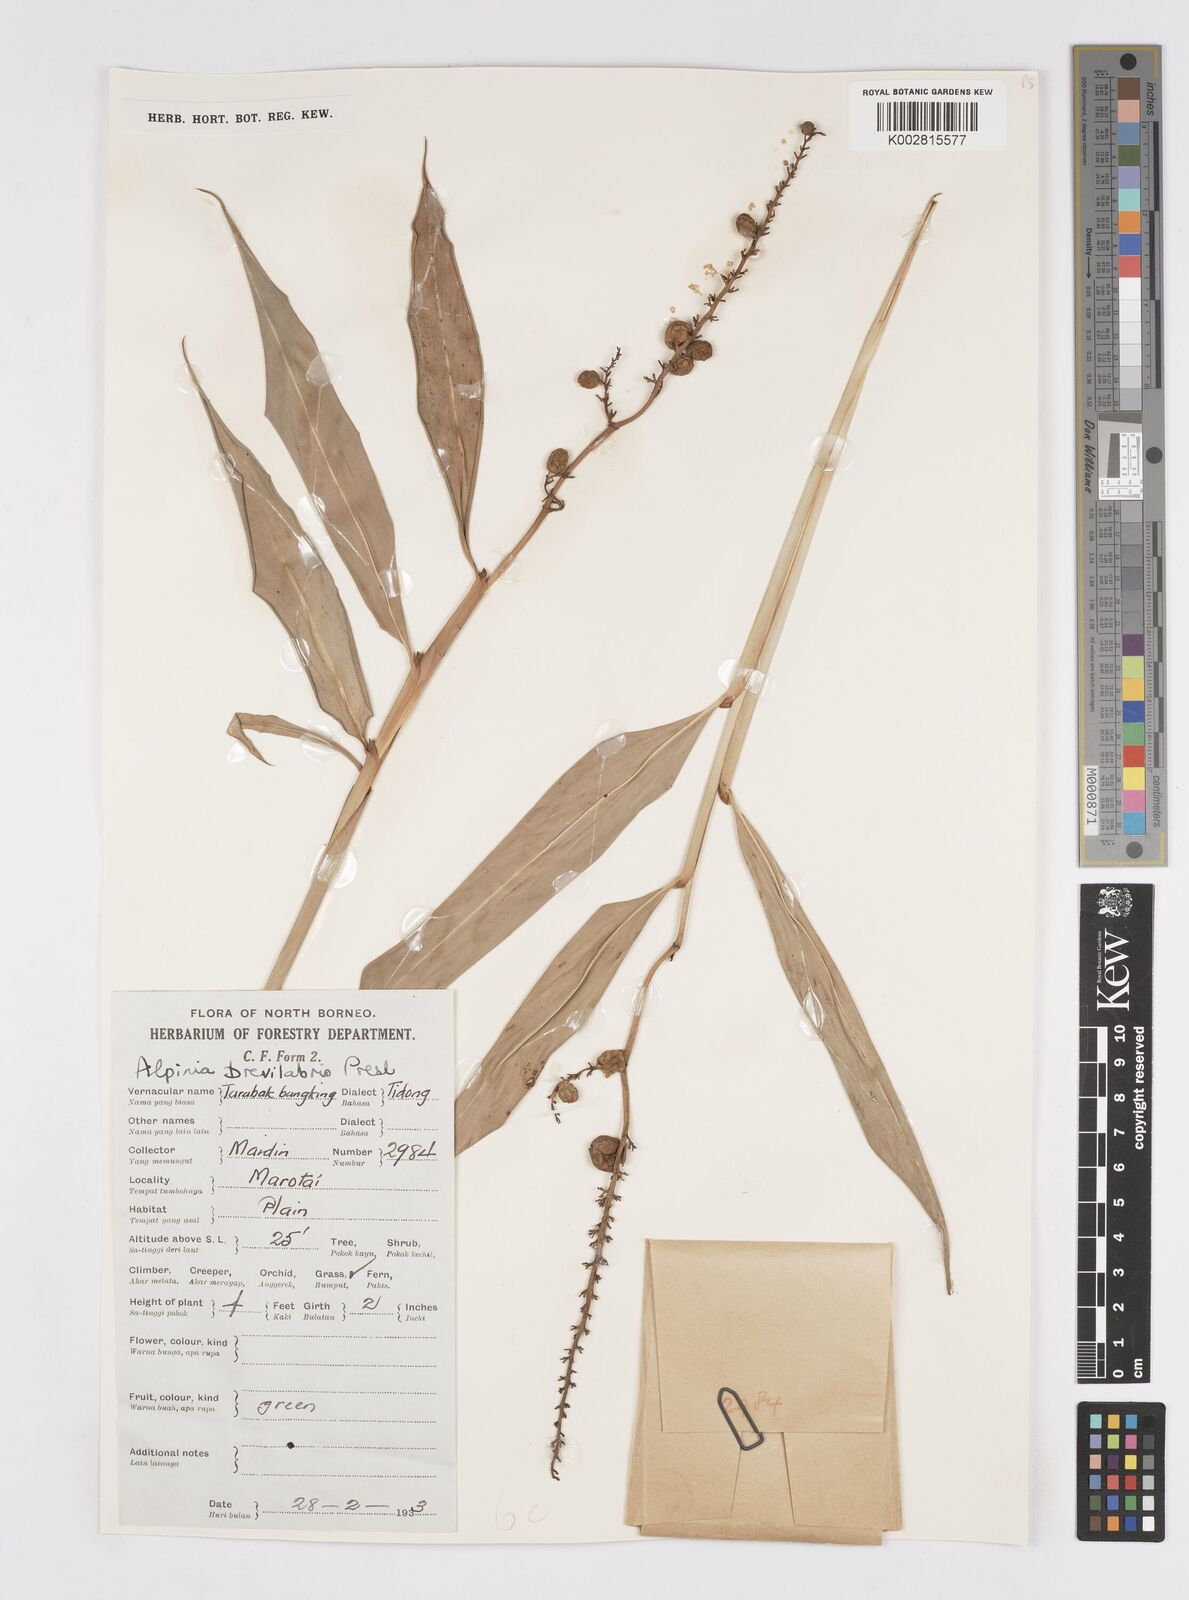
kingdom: Plantae
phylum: Tracheophyta
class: Liliopsida
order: Zingiberales
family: Zingiberaceae
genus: Alpinia
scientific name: Alpinia brevilabris
